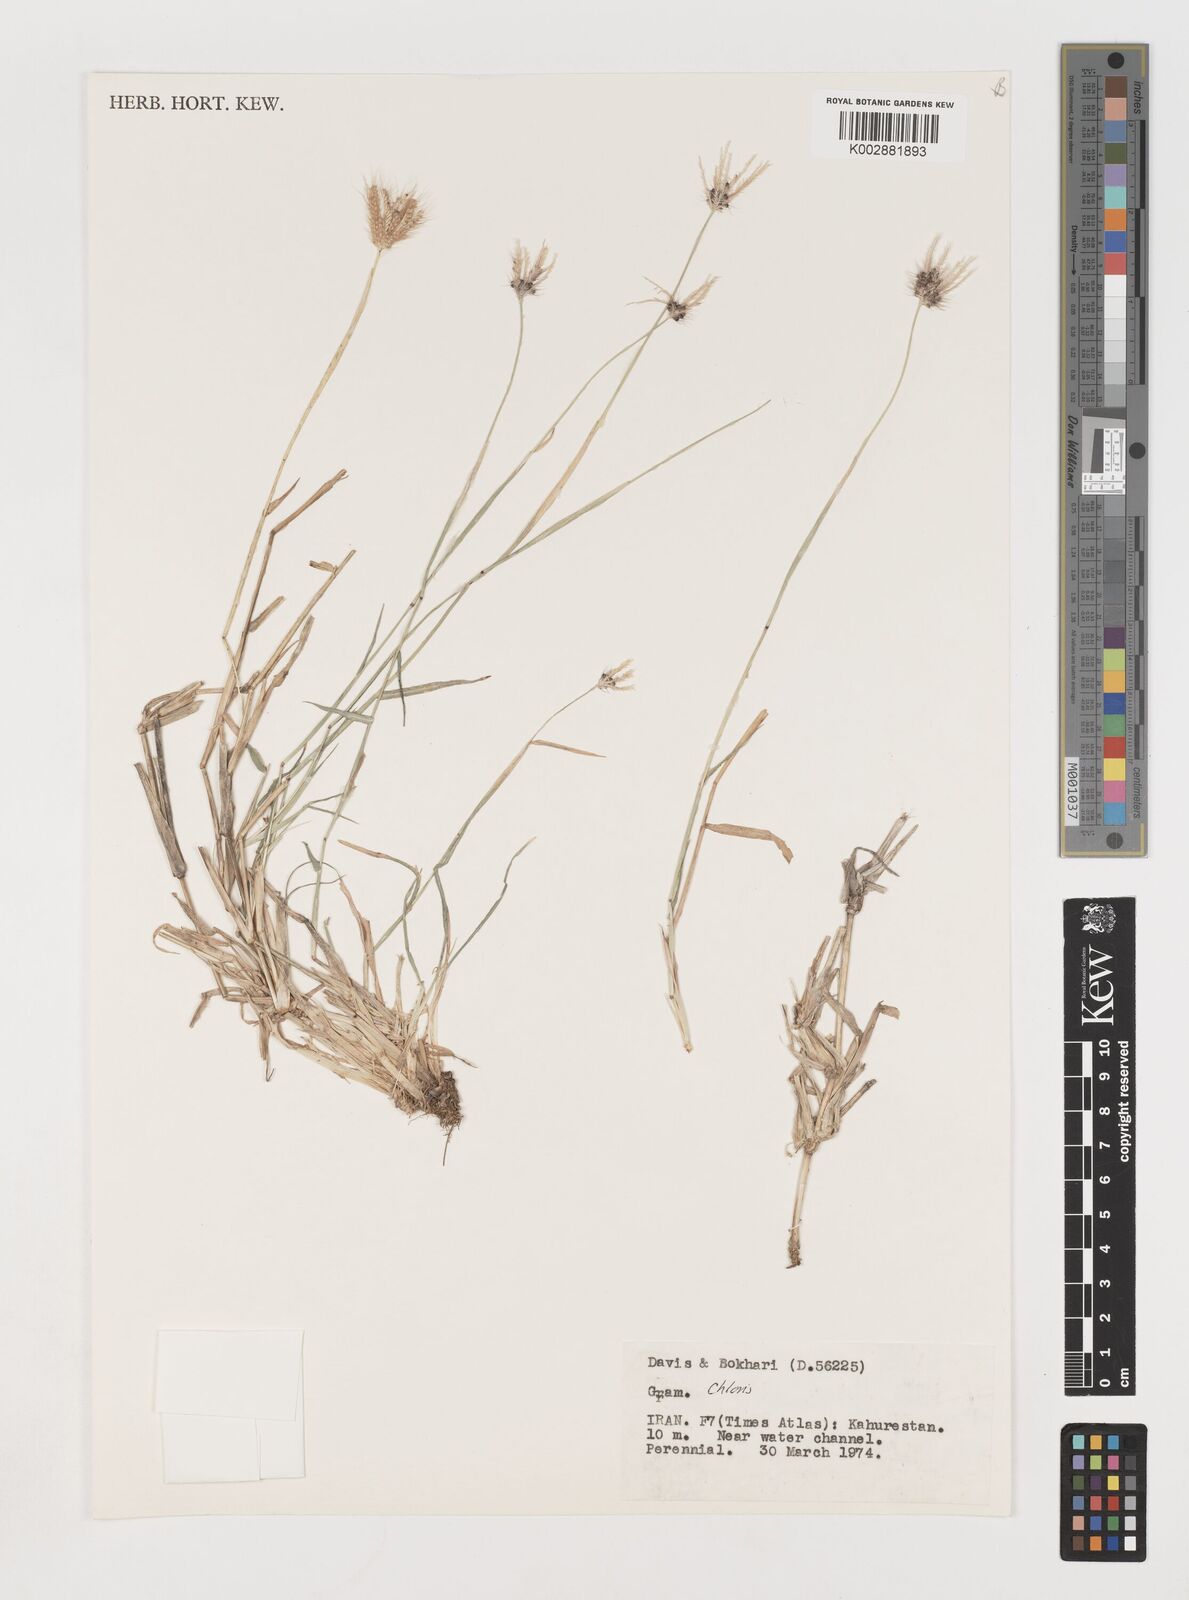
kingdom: Plantae
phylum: Tracheophyta
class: Liliopsida
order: Poales
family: Poaceae
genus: Chloris
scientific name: Chloris
